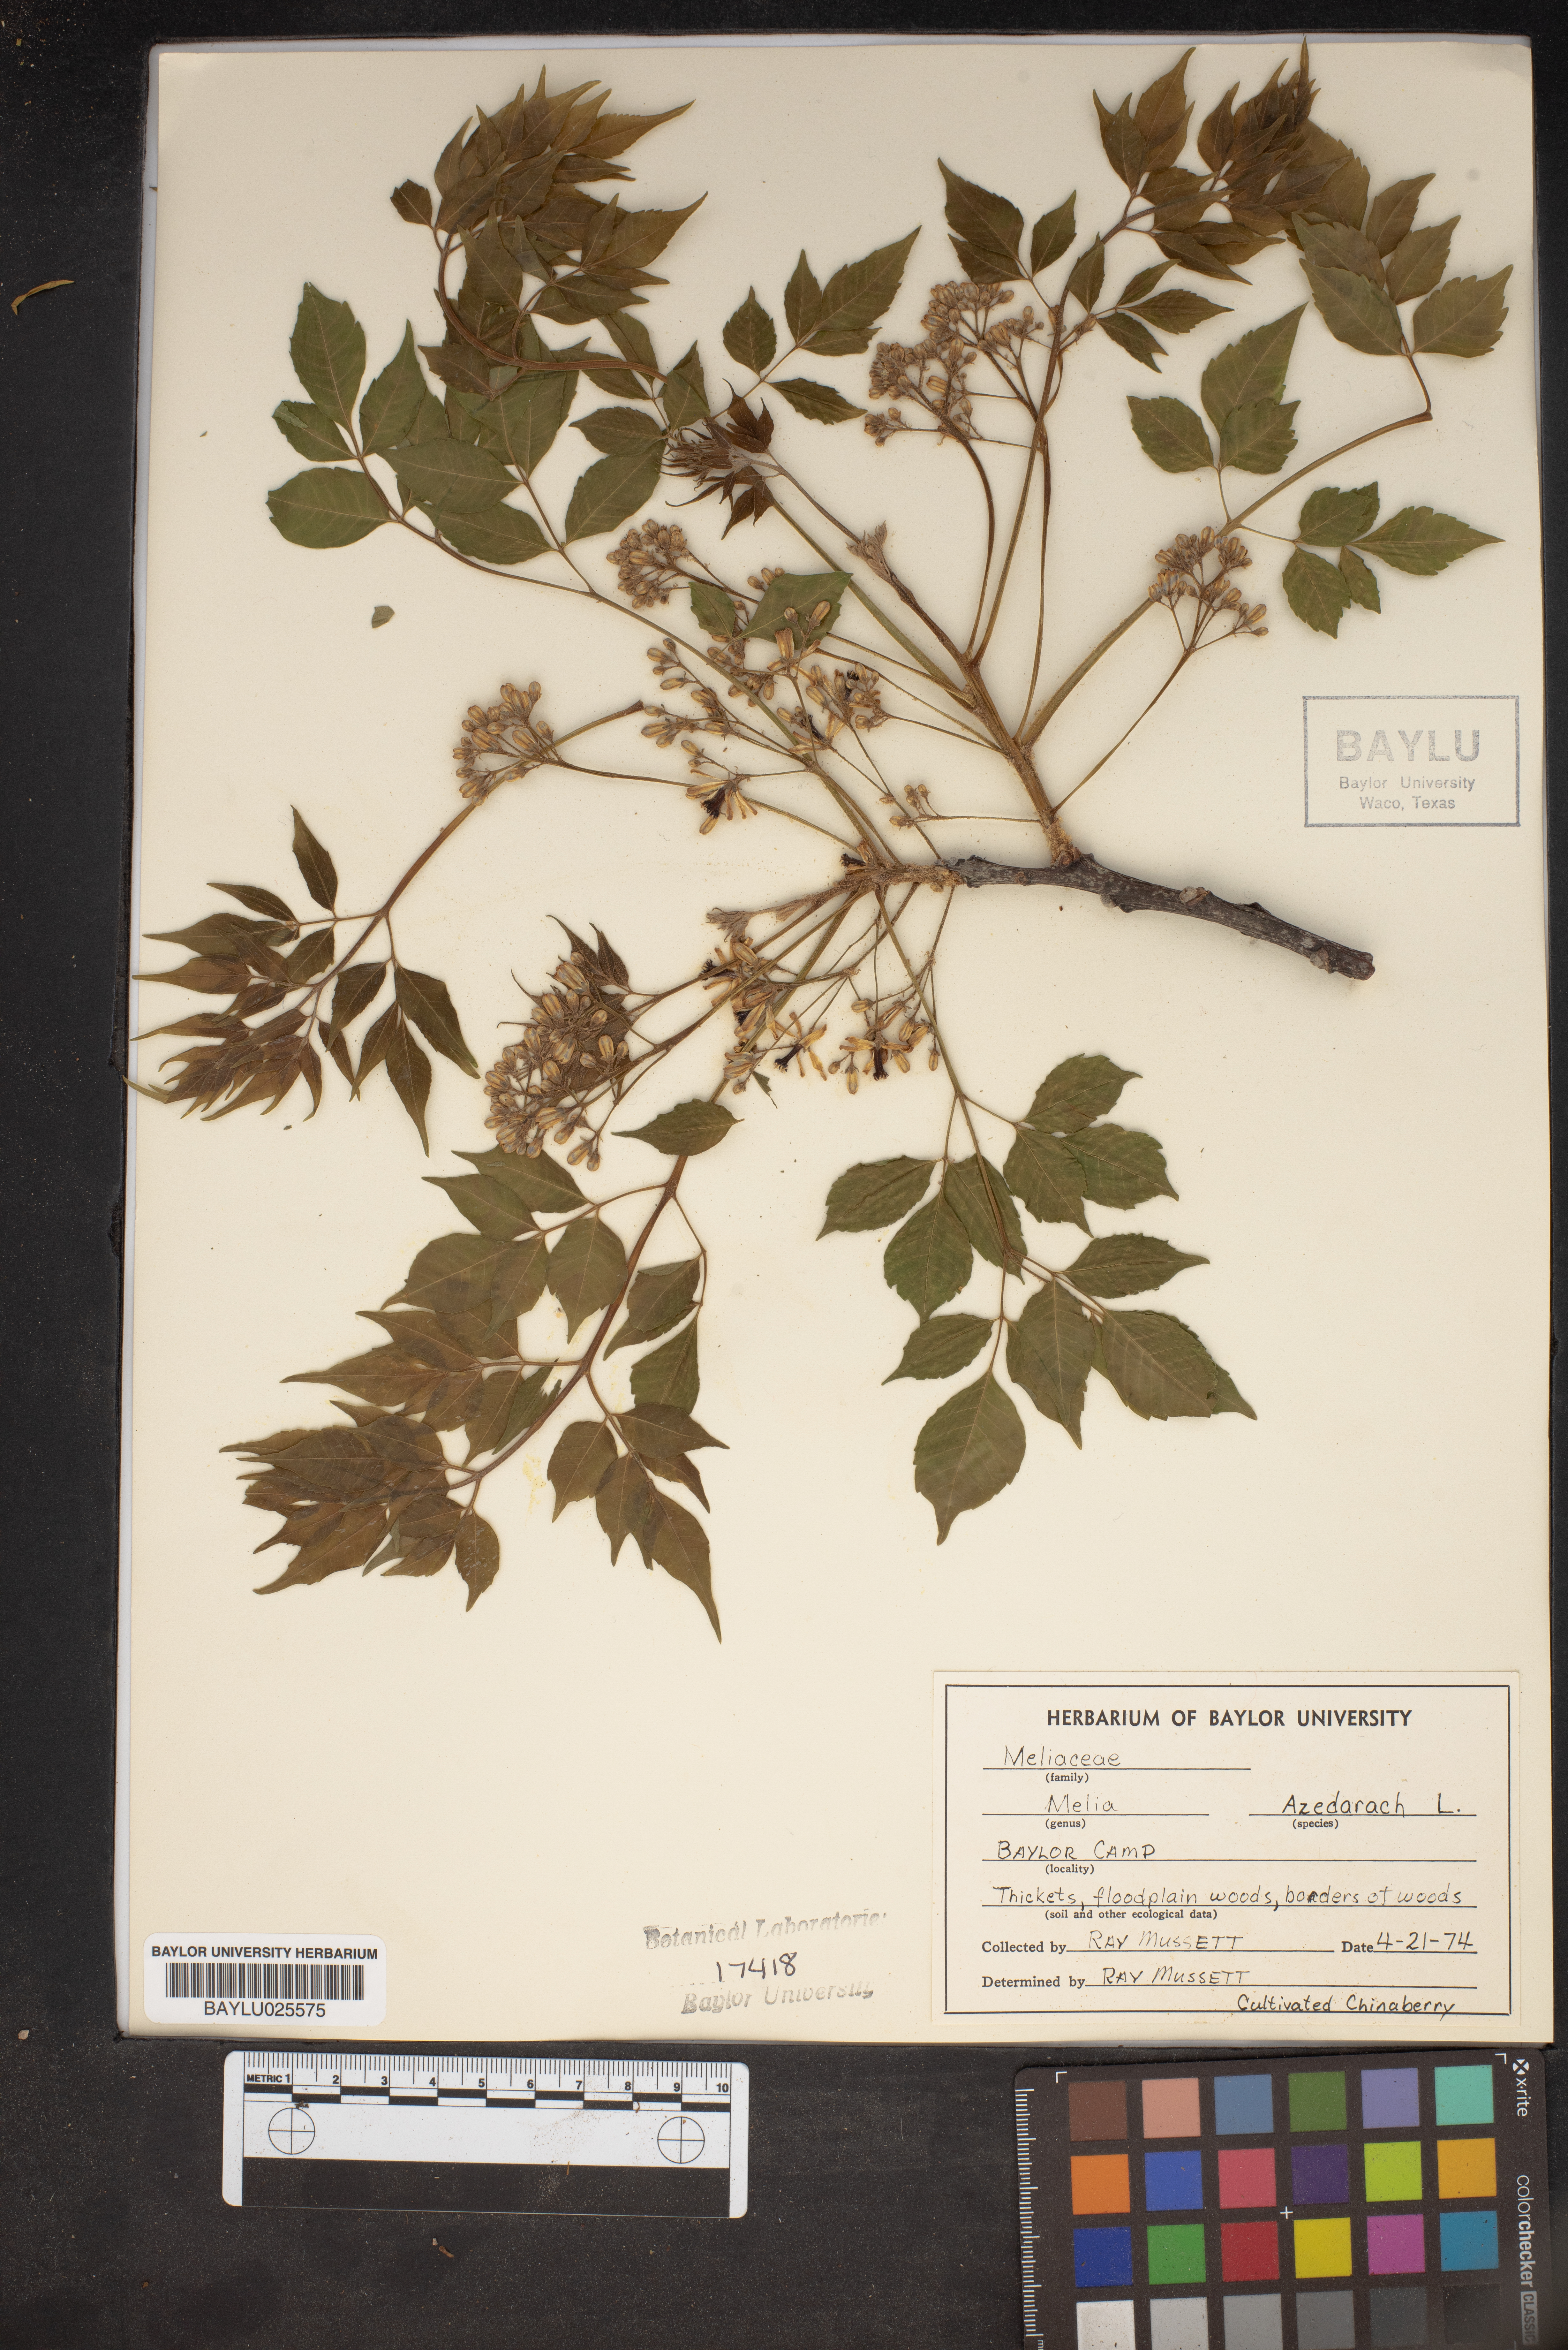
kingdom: Plantae
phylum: Tracheophyta
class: Magnoliopsida
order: Sapindales
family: Meliaceae
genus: Melia
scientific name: Melia azedarach
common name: Chinaberrytree
